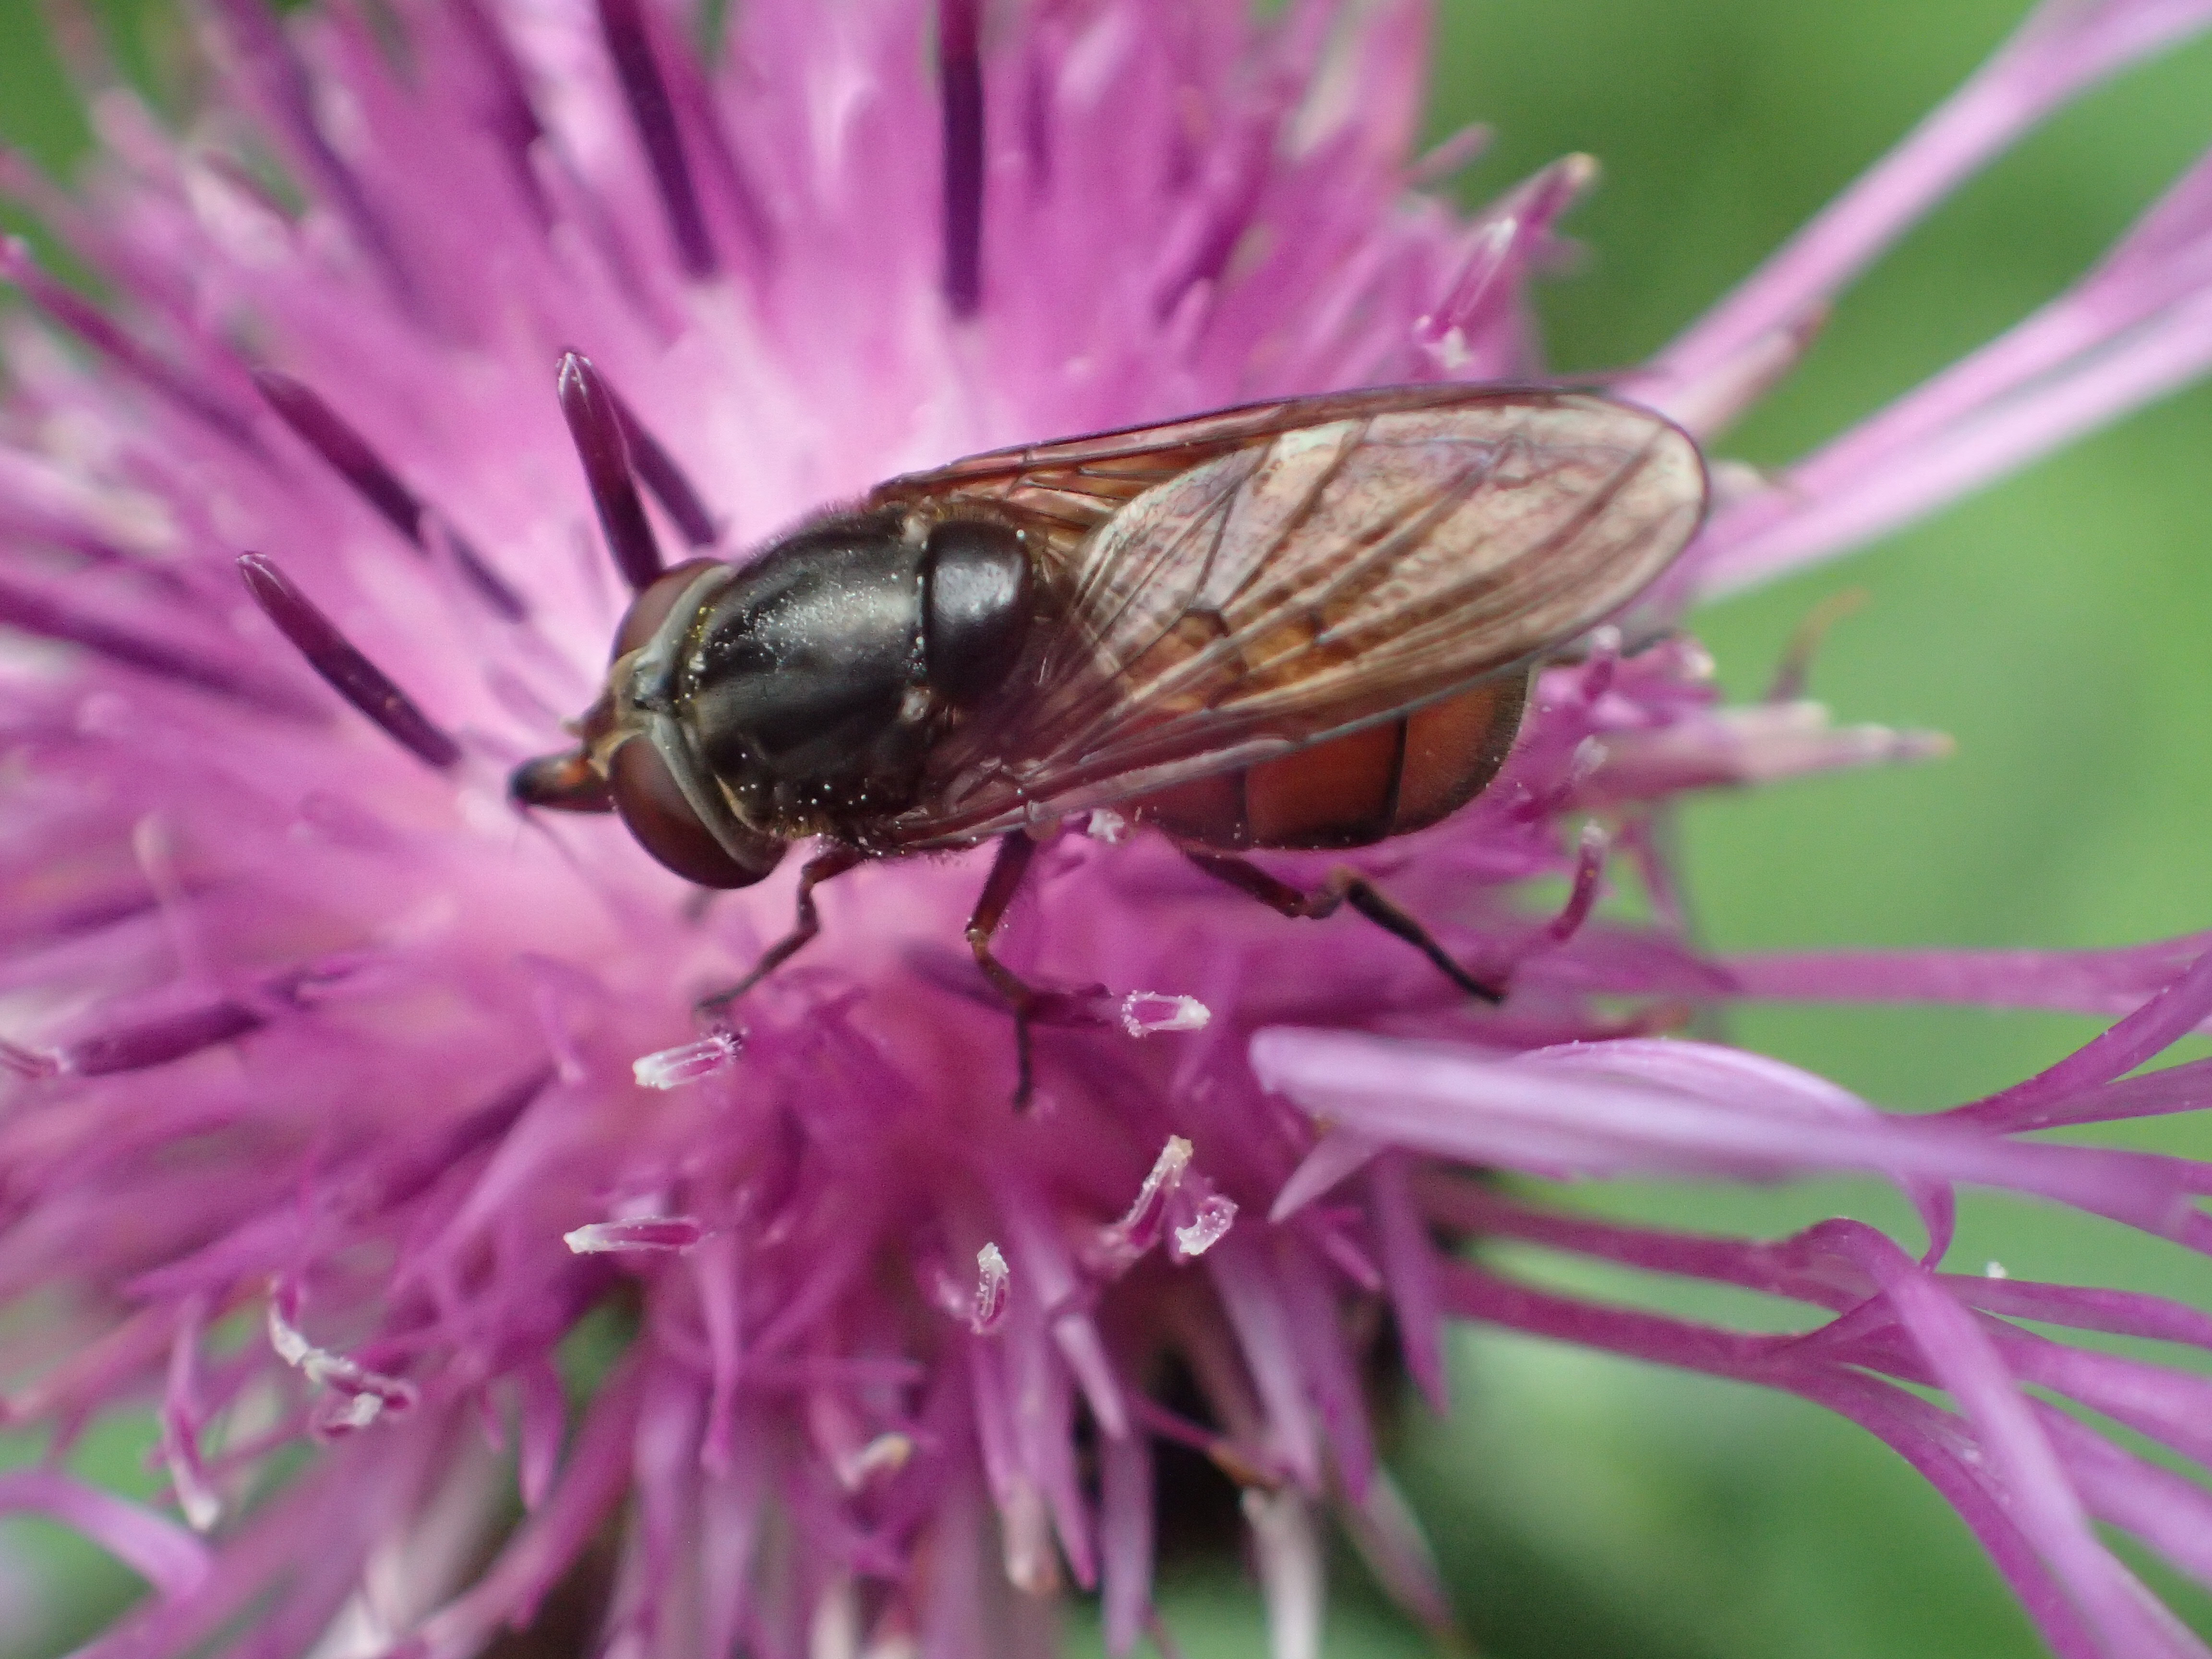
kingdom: Animalia
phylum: Arthropoda
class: Insecta
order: Diptera
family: Syrphidae
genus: Rhingia
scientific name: Rhingia campestris
